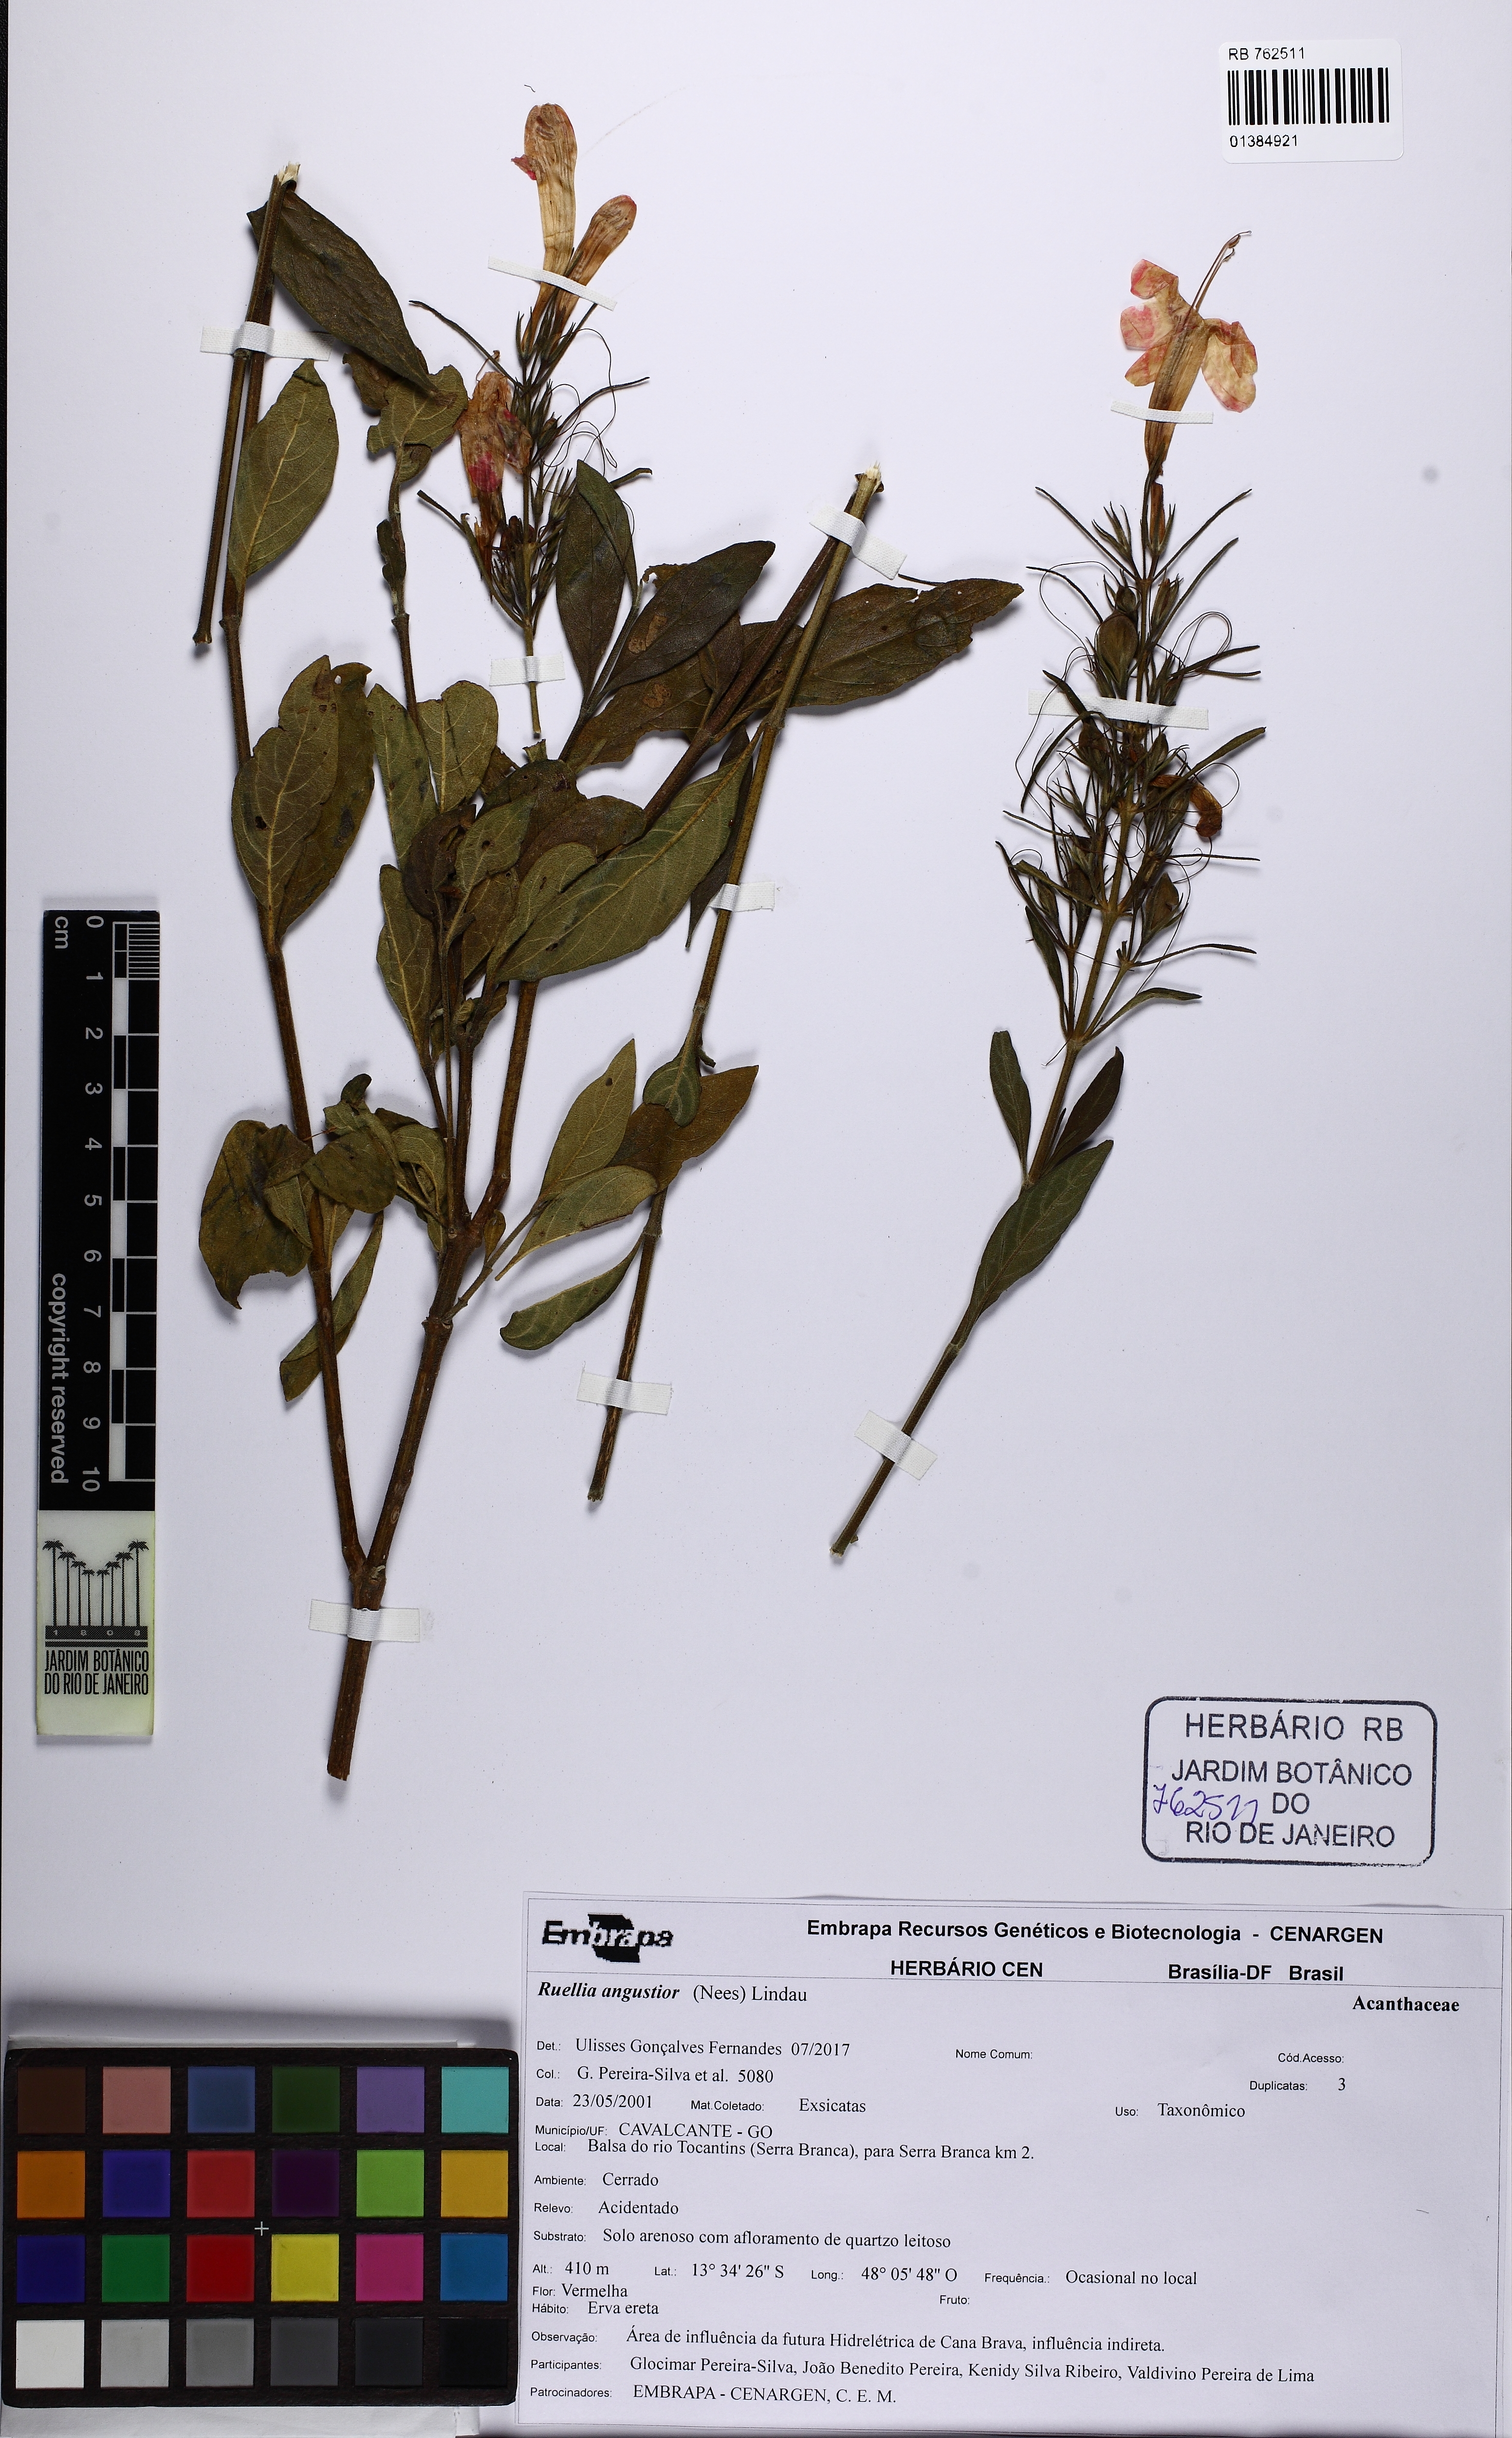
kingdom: Plantae
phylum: Tracheophyta
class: Magnoliopsida
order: Lamiales
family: Acanthaceae
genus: Ruellia
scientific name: Ruellia angustior
